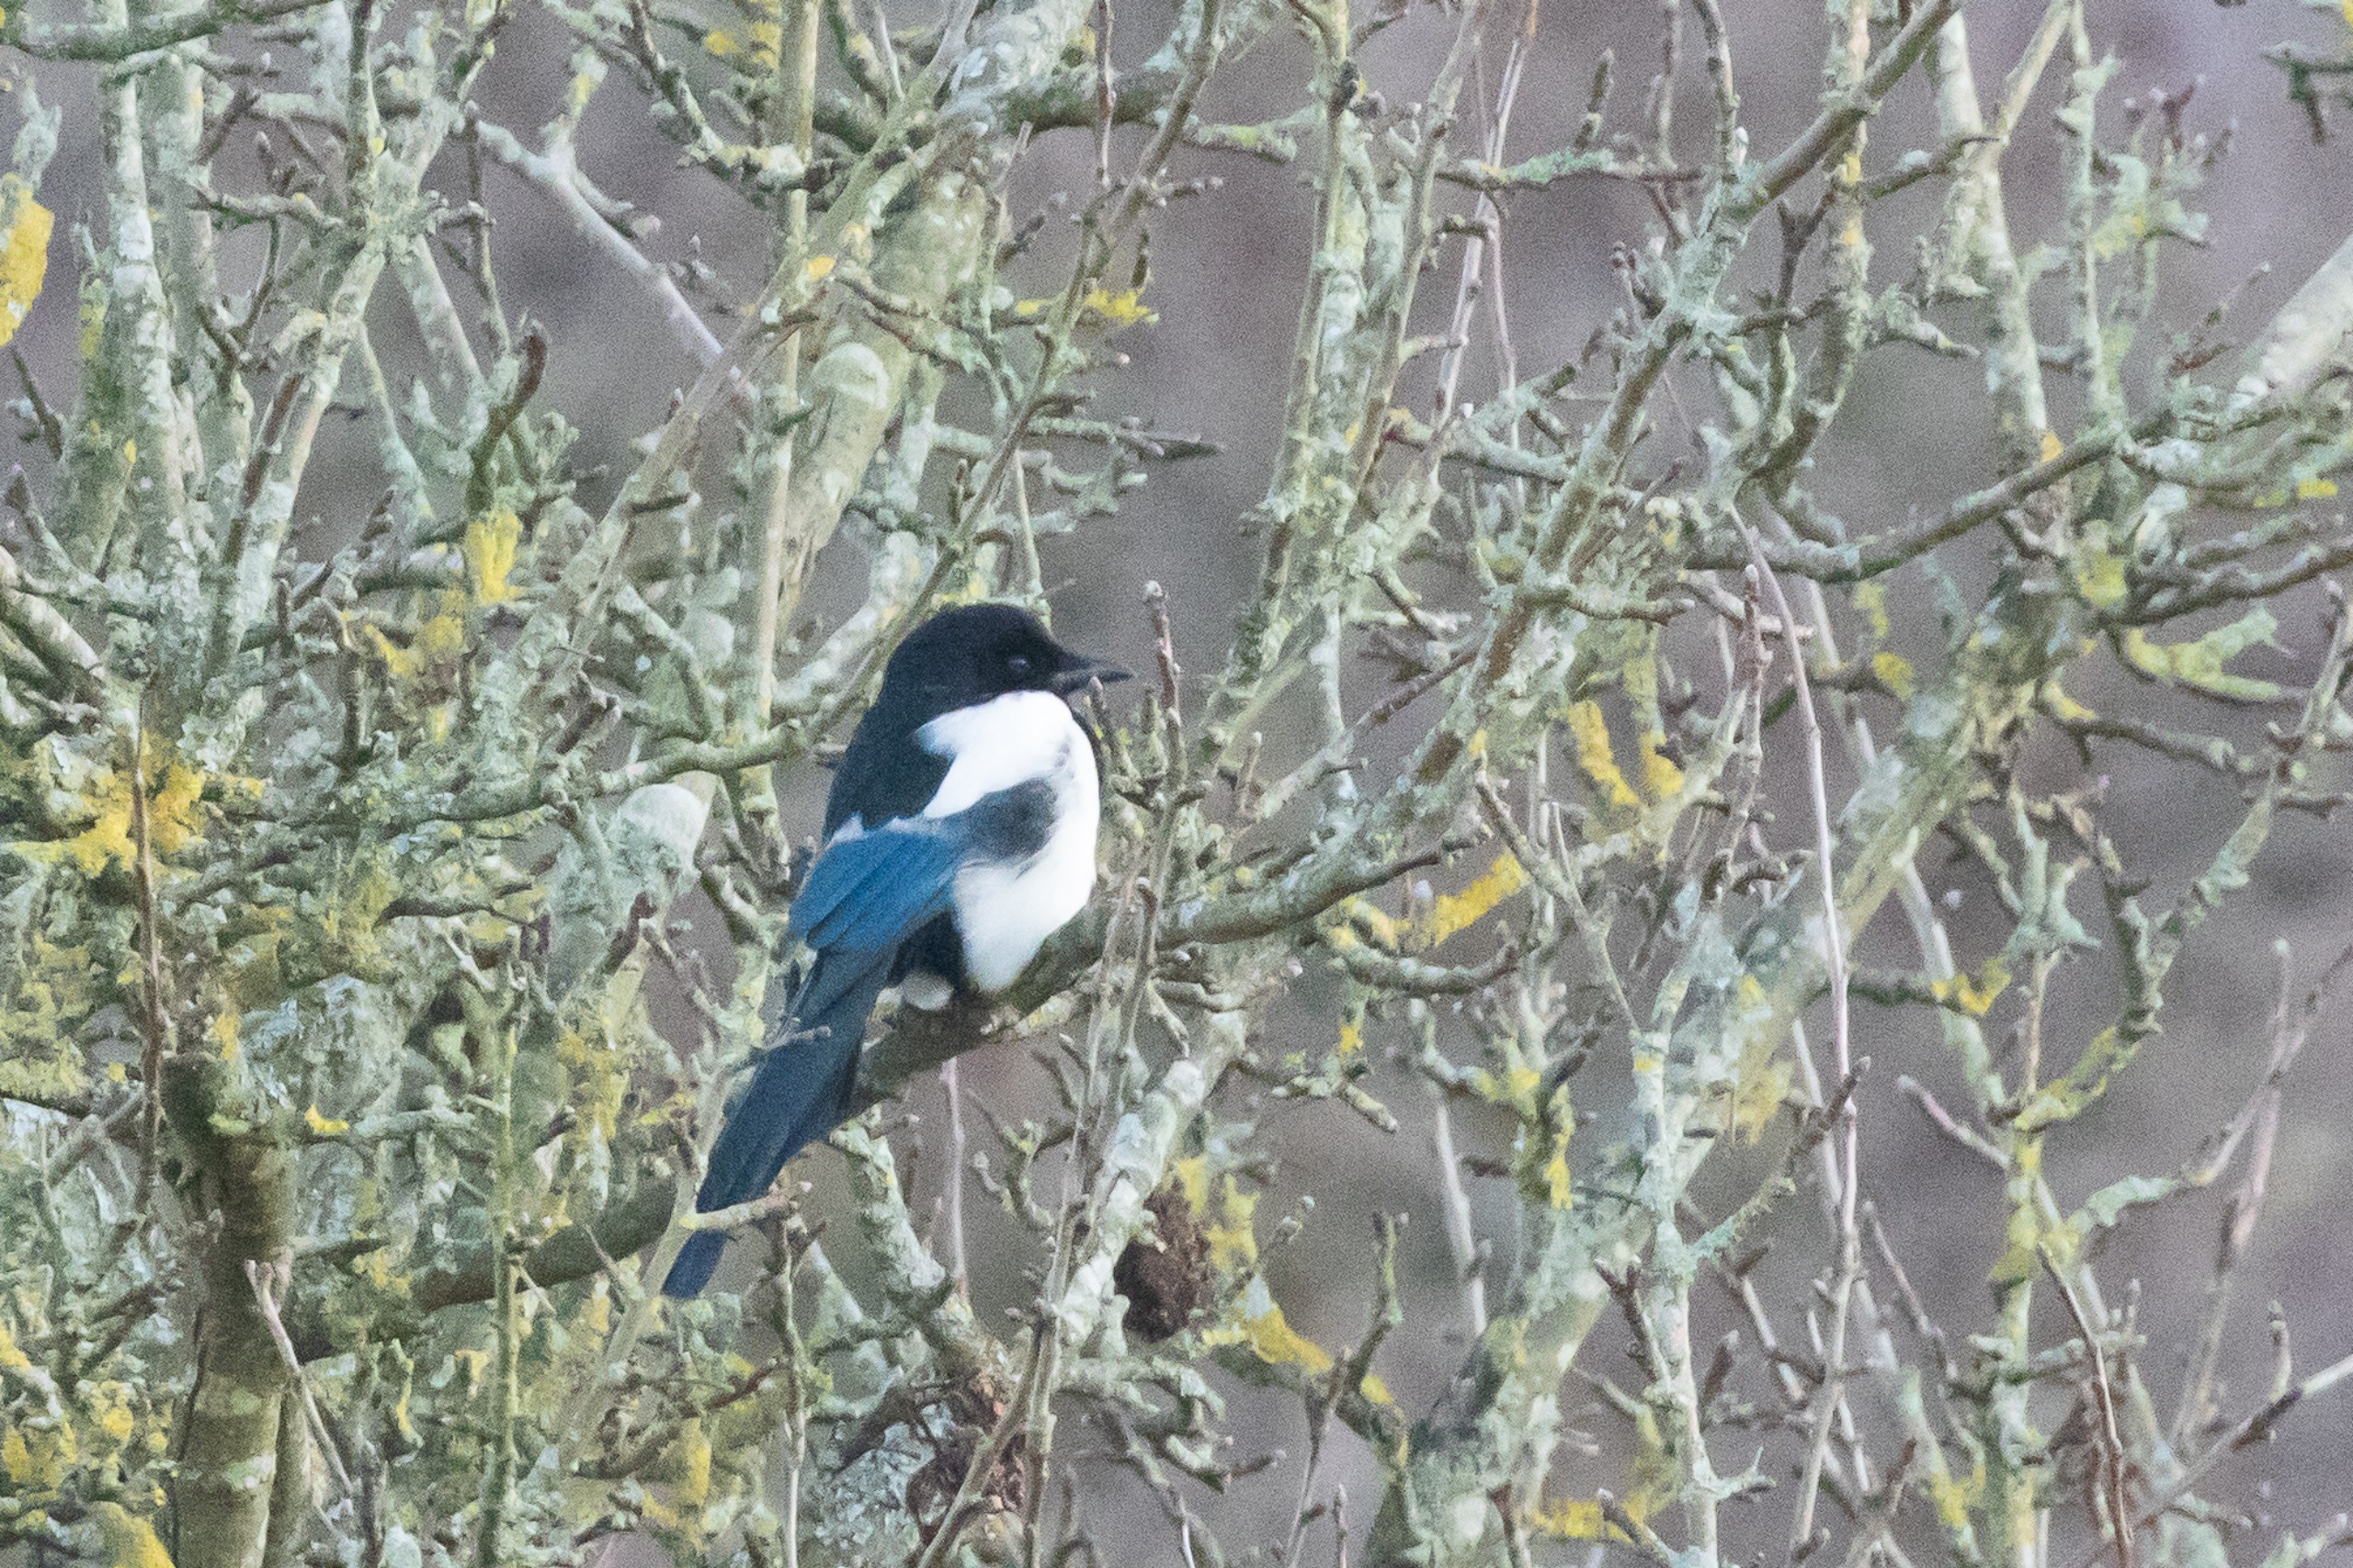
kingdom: Animalia
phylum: Chordata
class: Aves
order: Passeriformes
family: Corvidae
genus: Pica
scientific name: Pica pica
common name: Husskade
